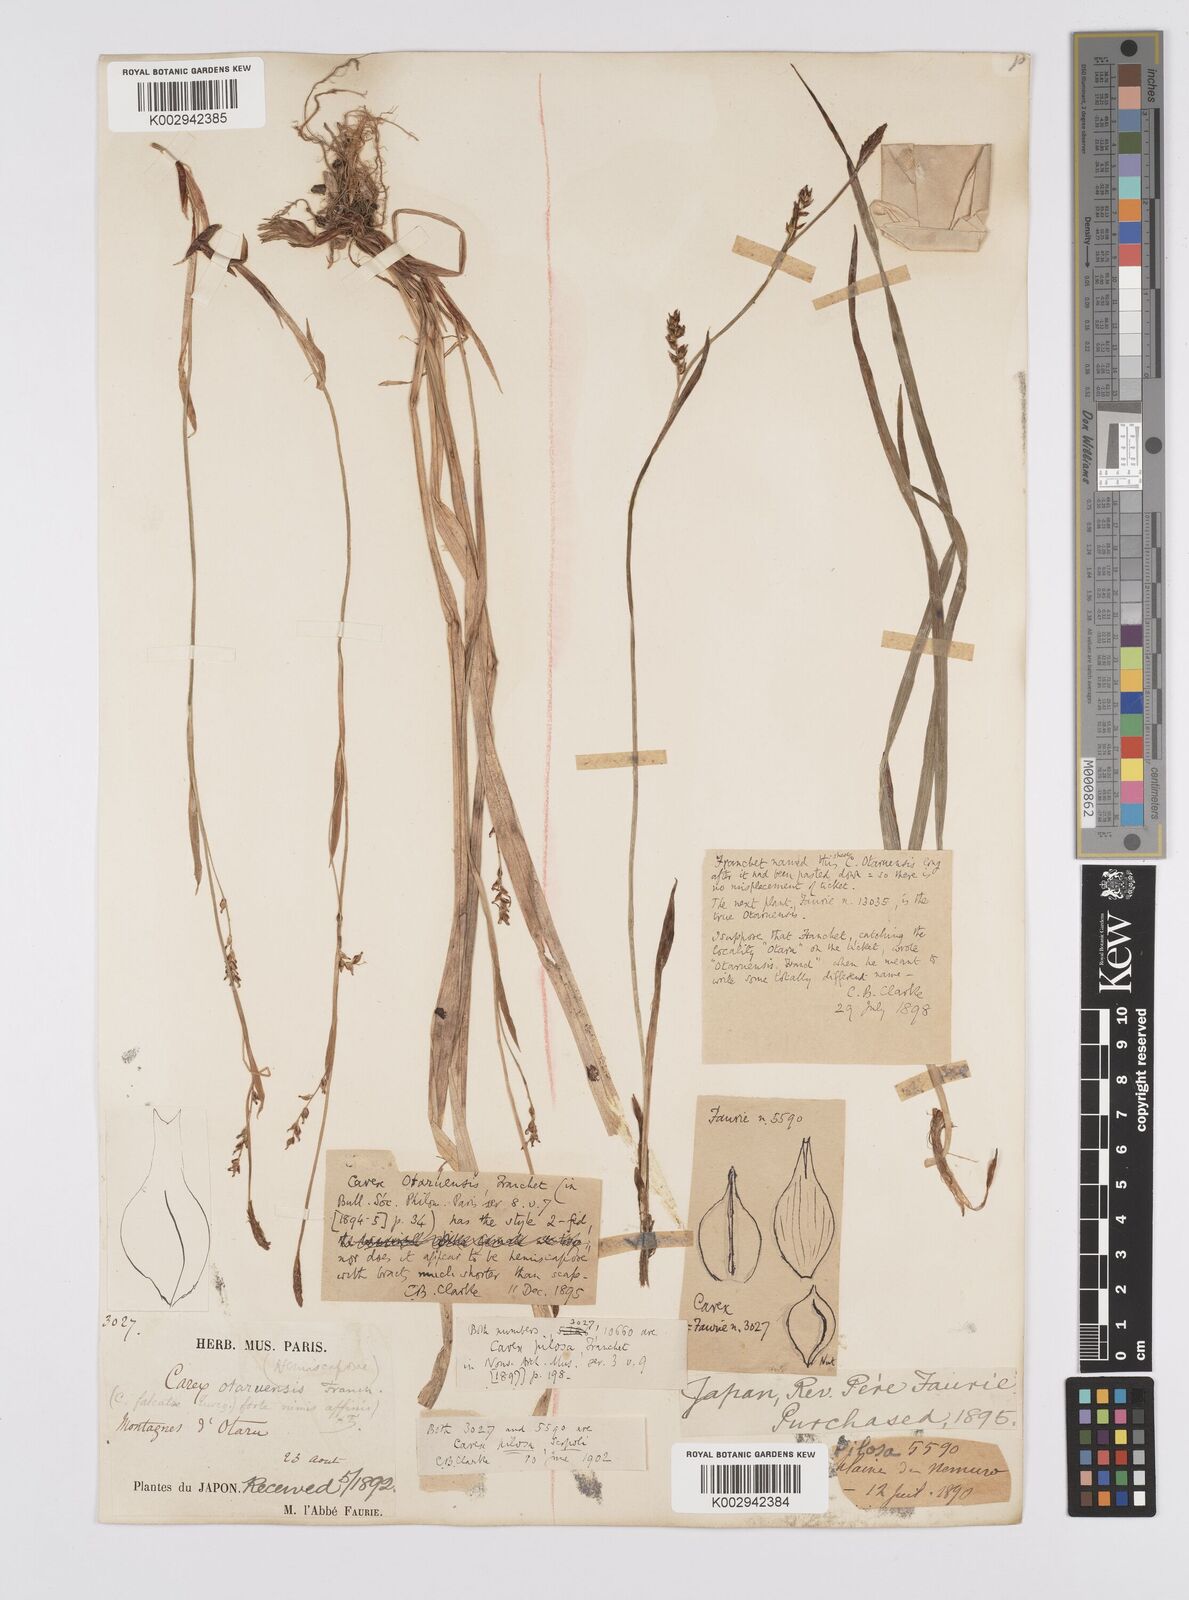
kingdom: Plantae
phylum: Tracheophyta
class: Liliopsida
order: Poales
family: Cyperaceae
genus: Carex
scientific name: Carex pilosa
